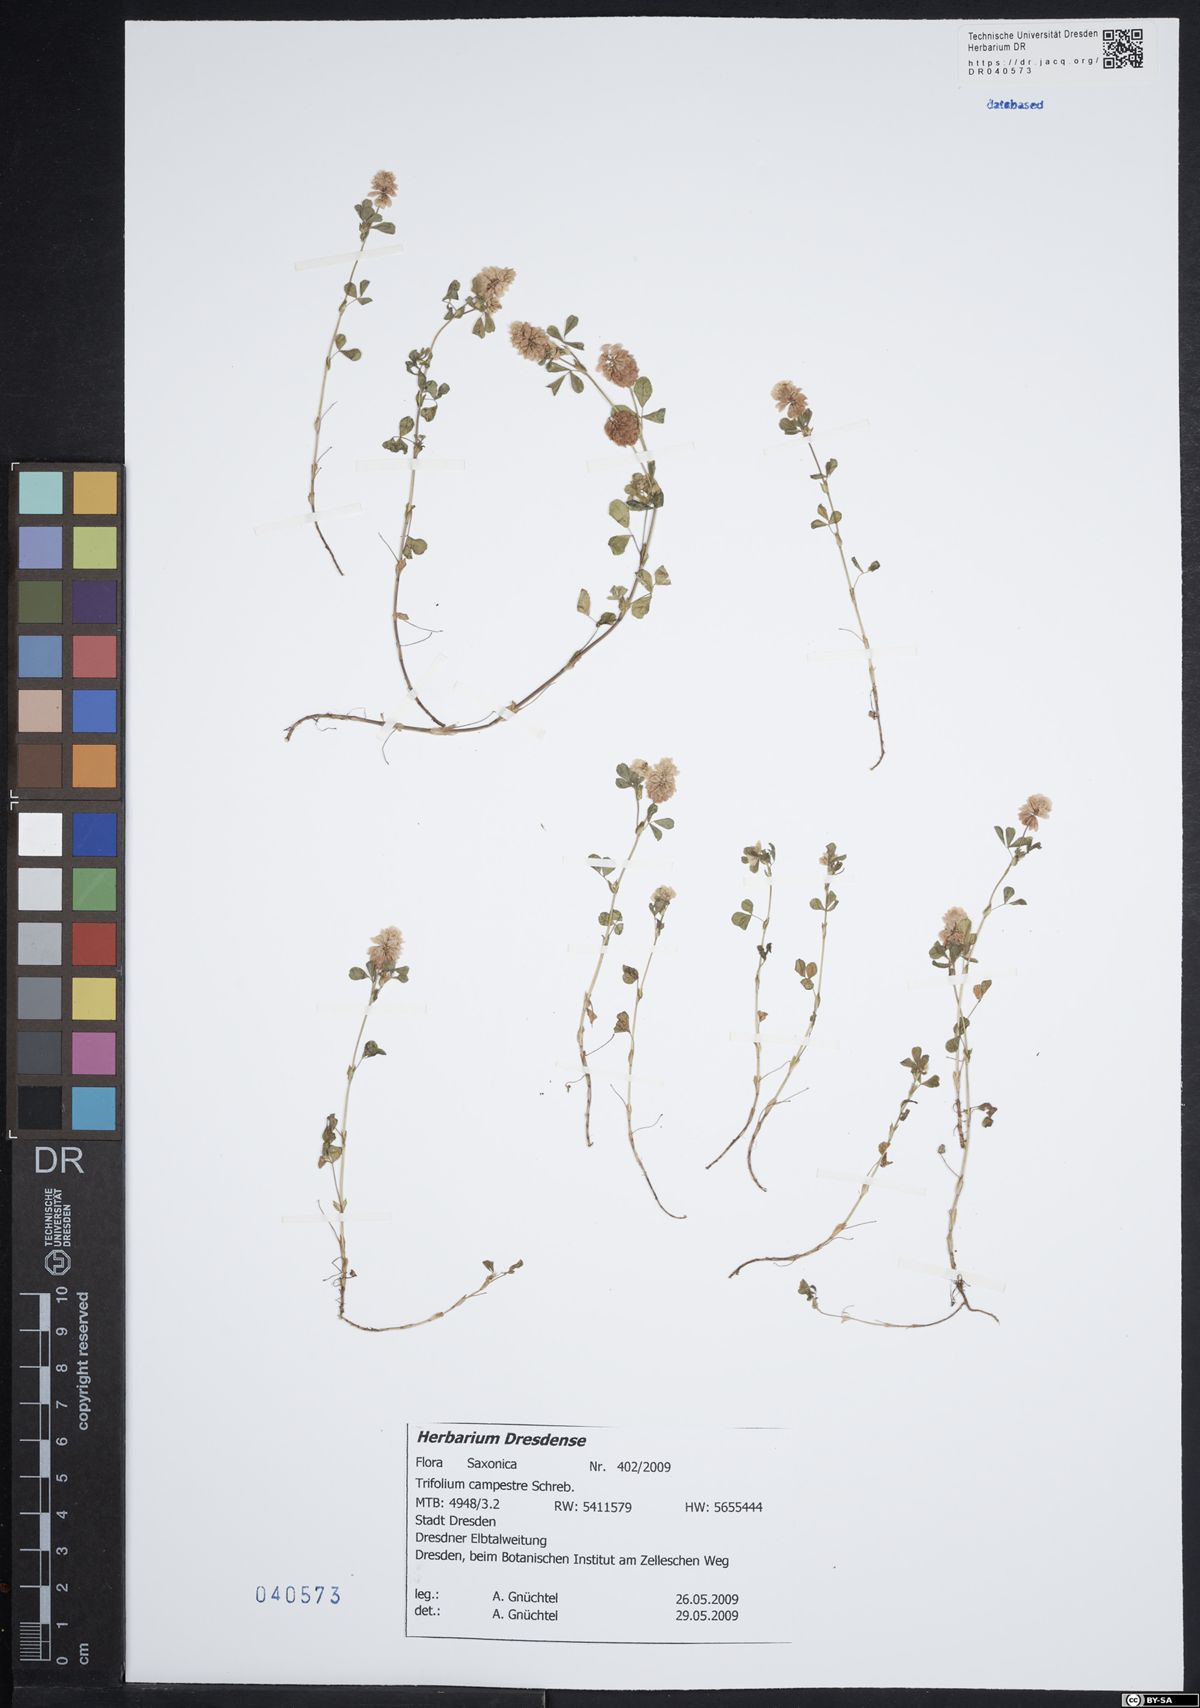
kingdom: Plantae
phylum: Tracheophyta
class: Magnoliopsida
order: Fabales
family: Fabaceae
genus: Trifolium
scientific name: Trifolium campestre
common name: Field clover
